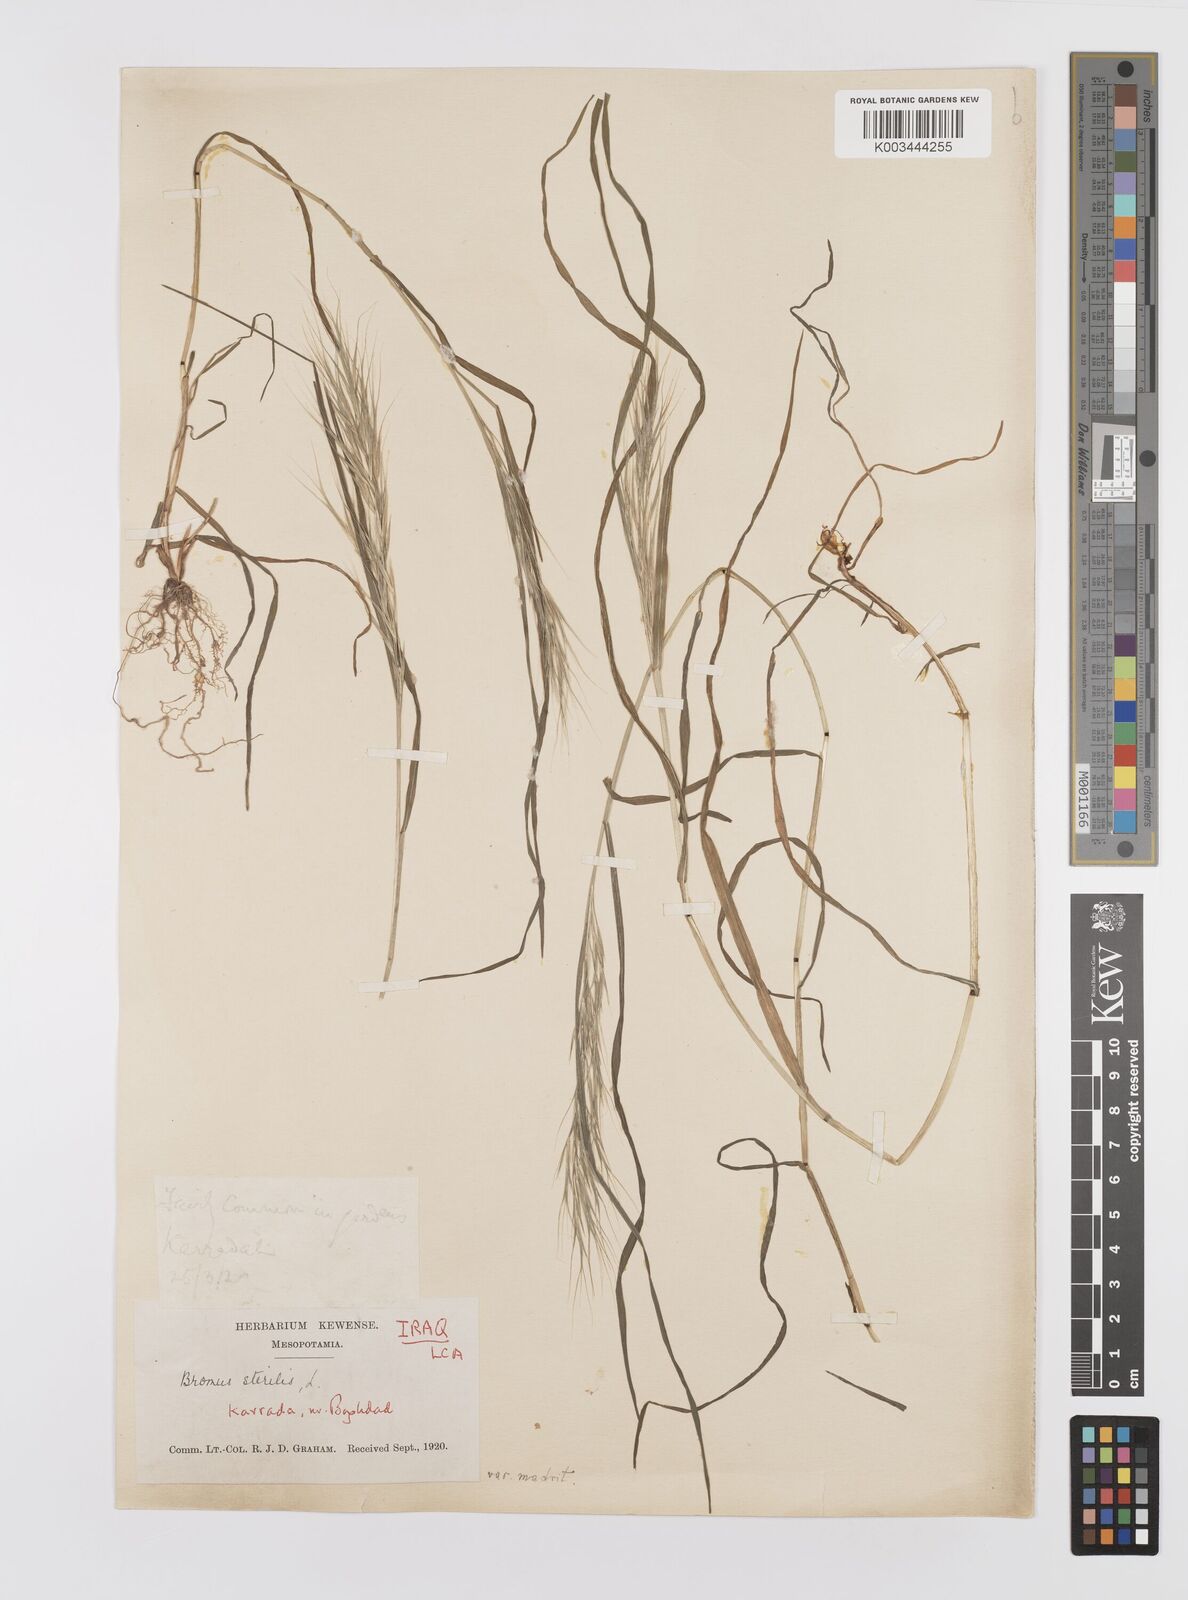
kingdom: Plantae
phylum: Tracheophyta
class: Liliopsida
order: Poales
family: Poaceae
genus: Bromus
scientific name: Bromus madritensis
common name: Compact brome
